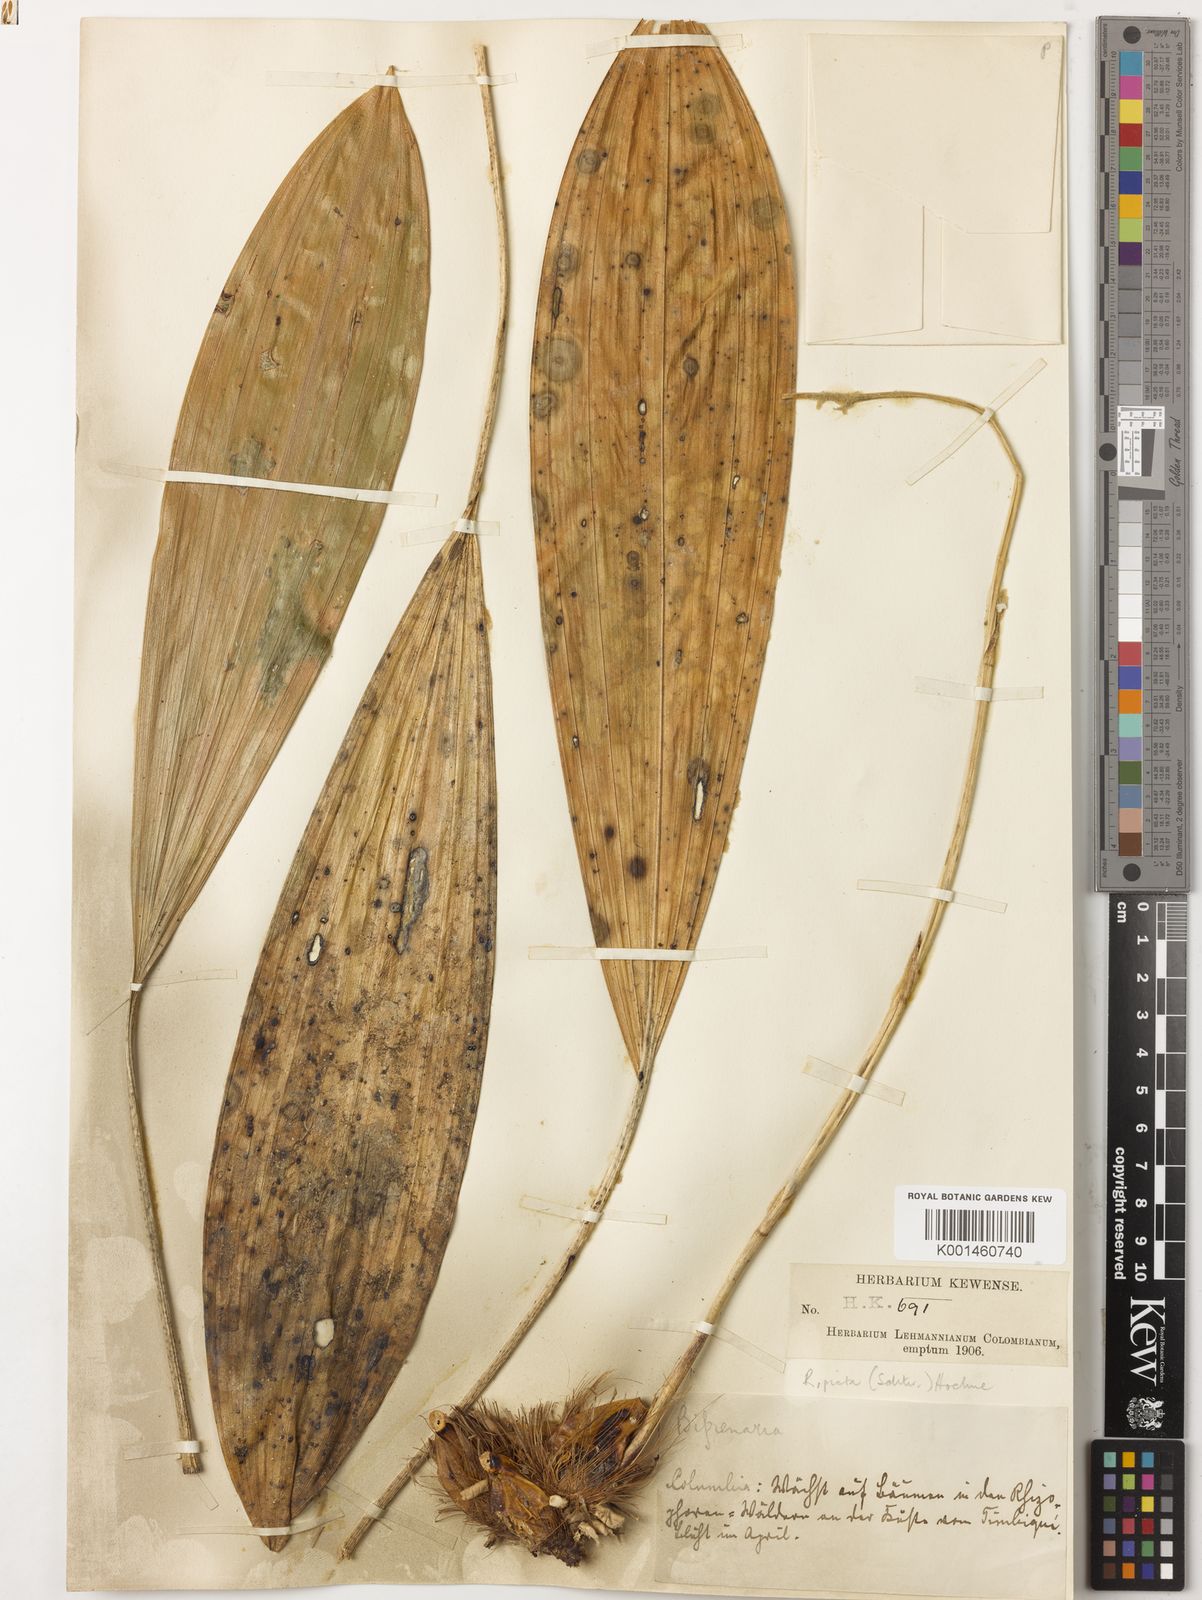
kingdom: Plantae
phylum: Tracheophyta
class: Liliopsida
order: Asparagales
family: Orchidaceae
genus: Rudolfiella
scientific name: Rudolfiella picta
